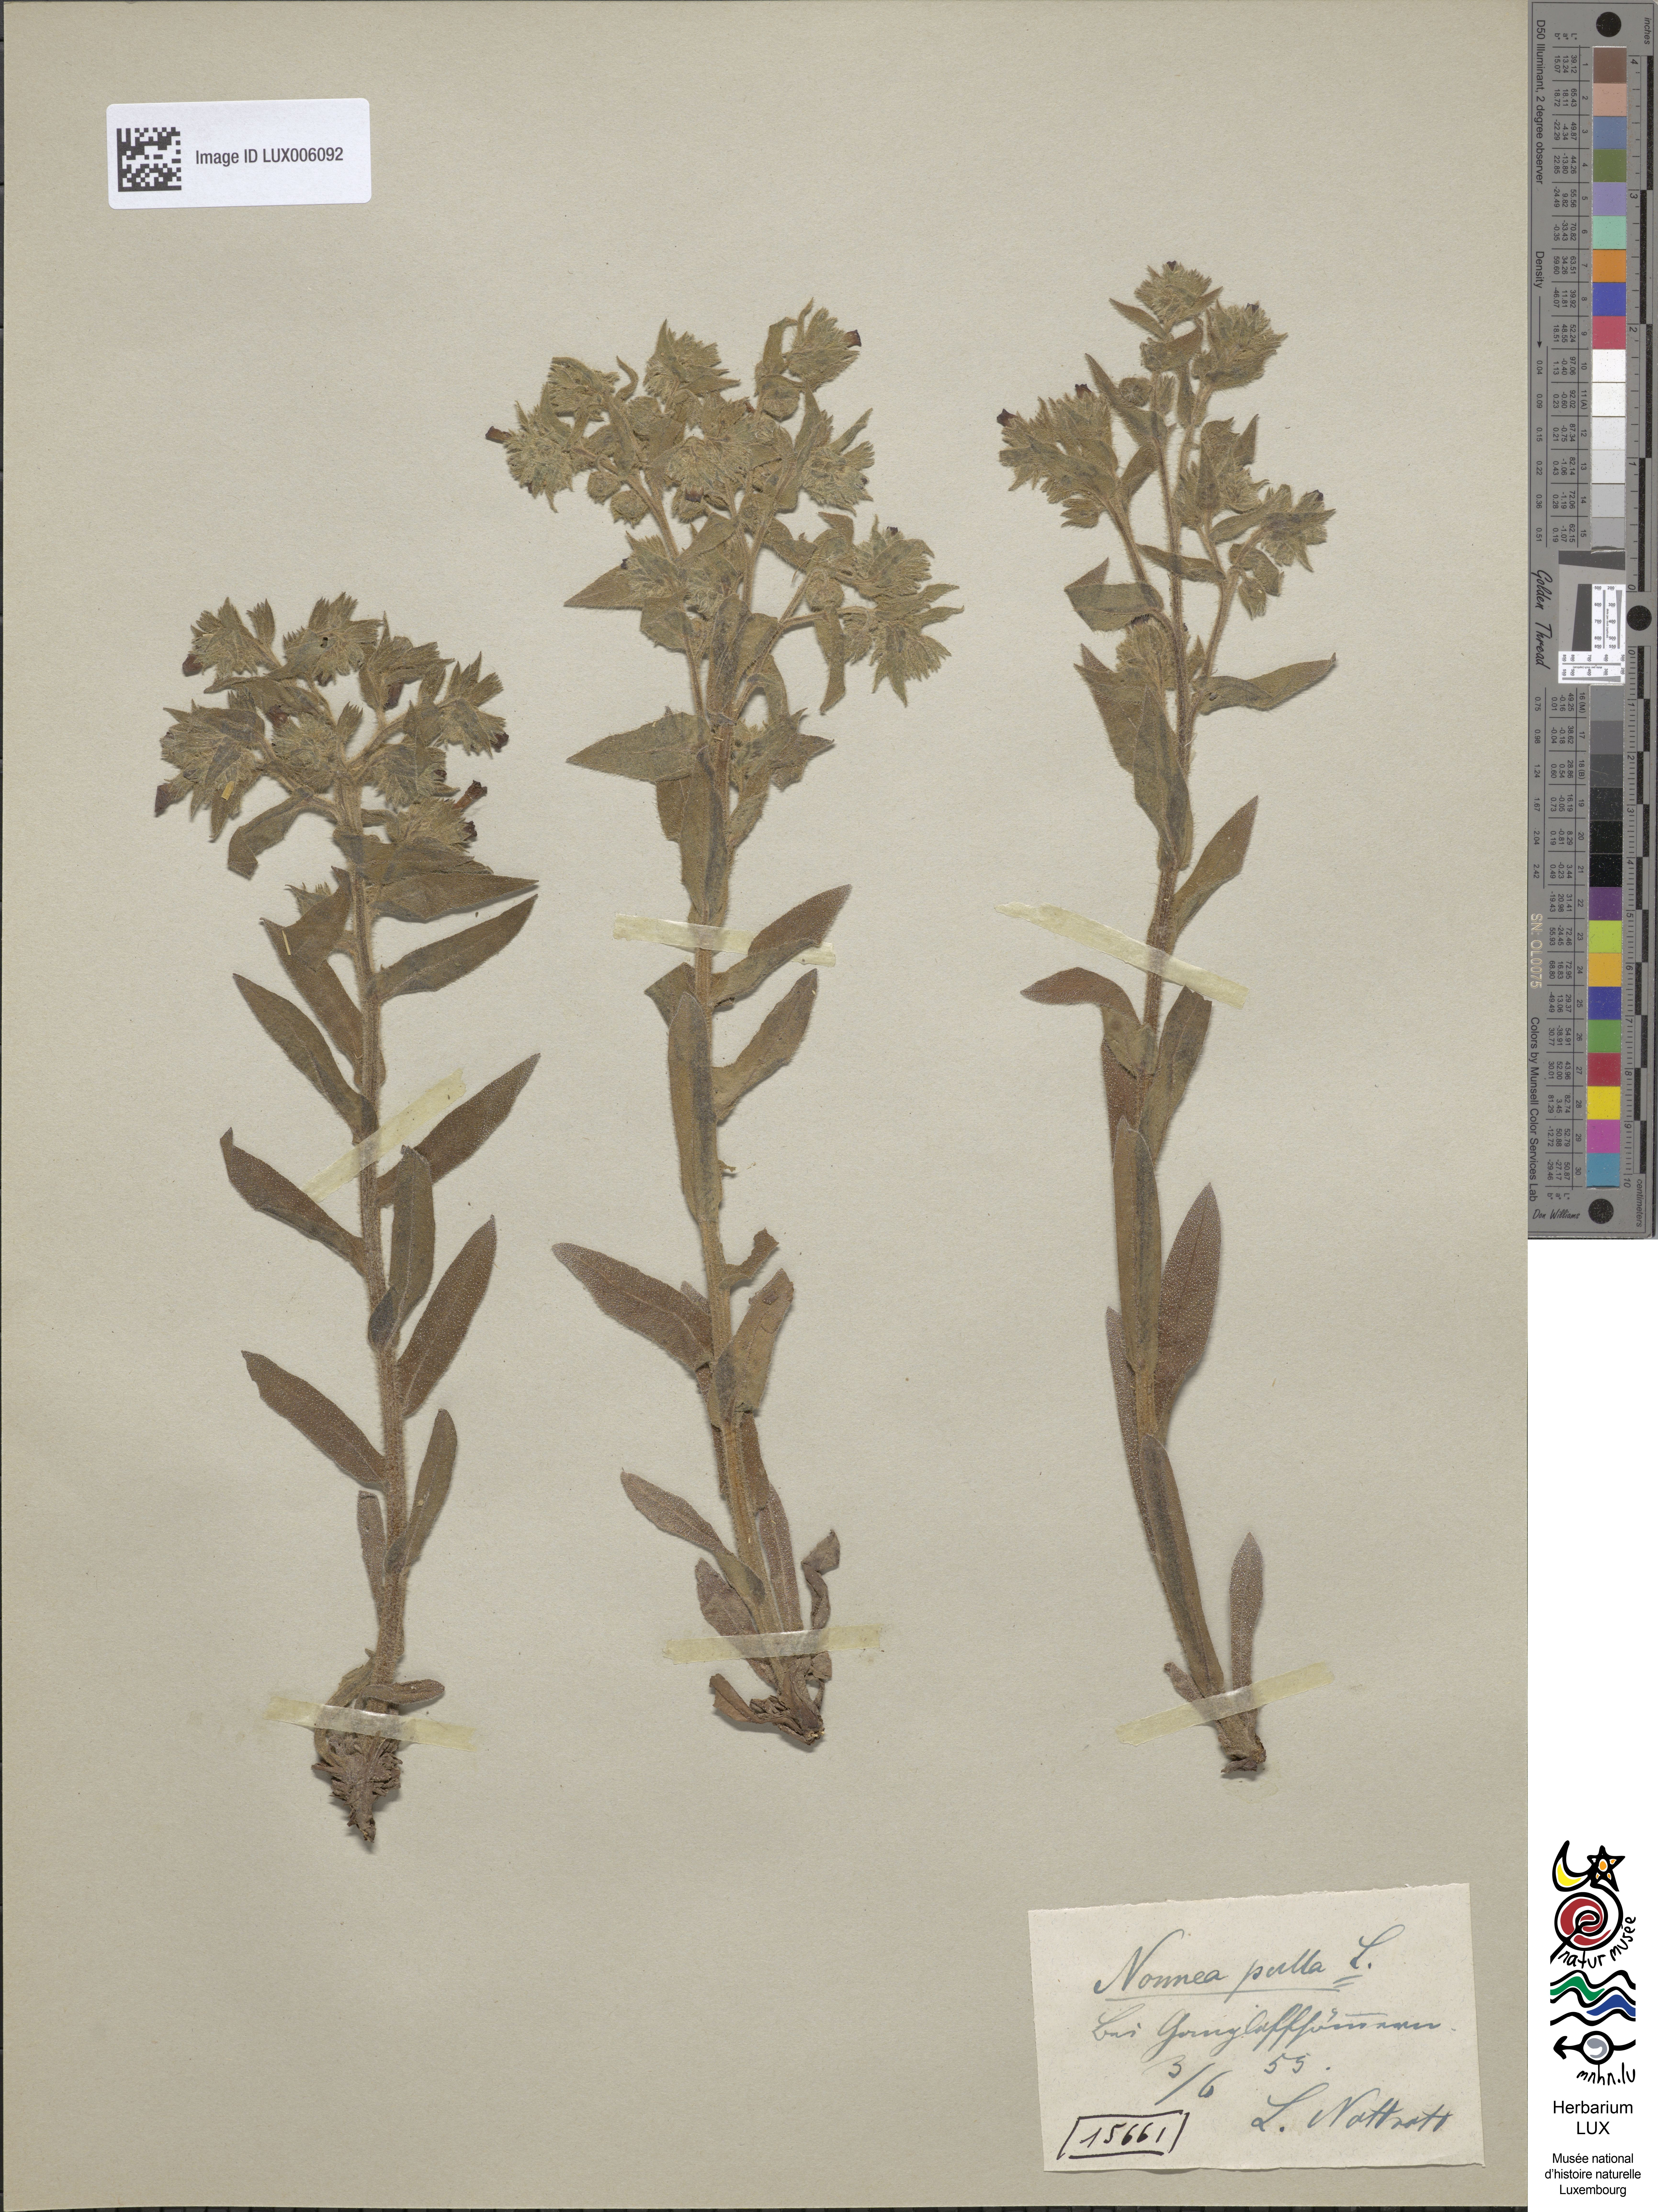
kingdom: Plantae
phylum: Tracheophyta
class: Magnoliopsida
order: Boraginales
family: Boraginaceae
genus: Nonea
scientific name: Nonea pulla
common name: Brown nonea
